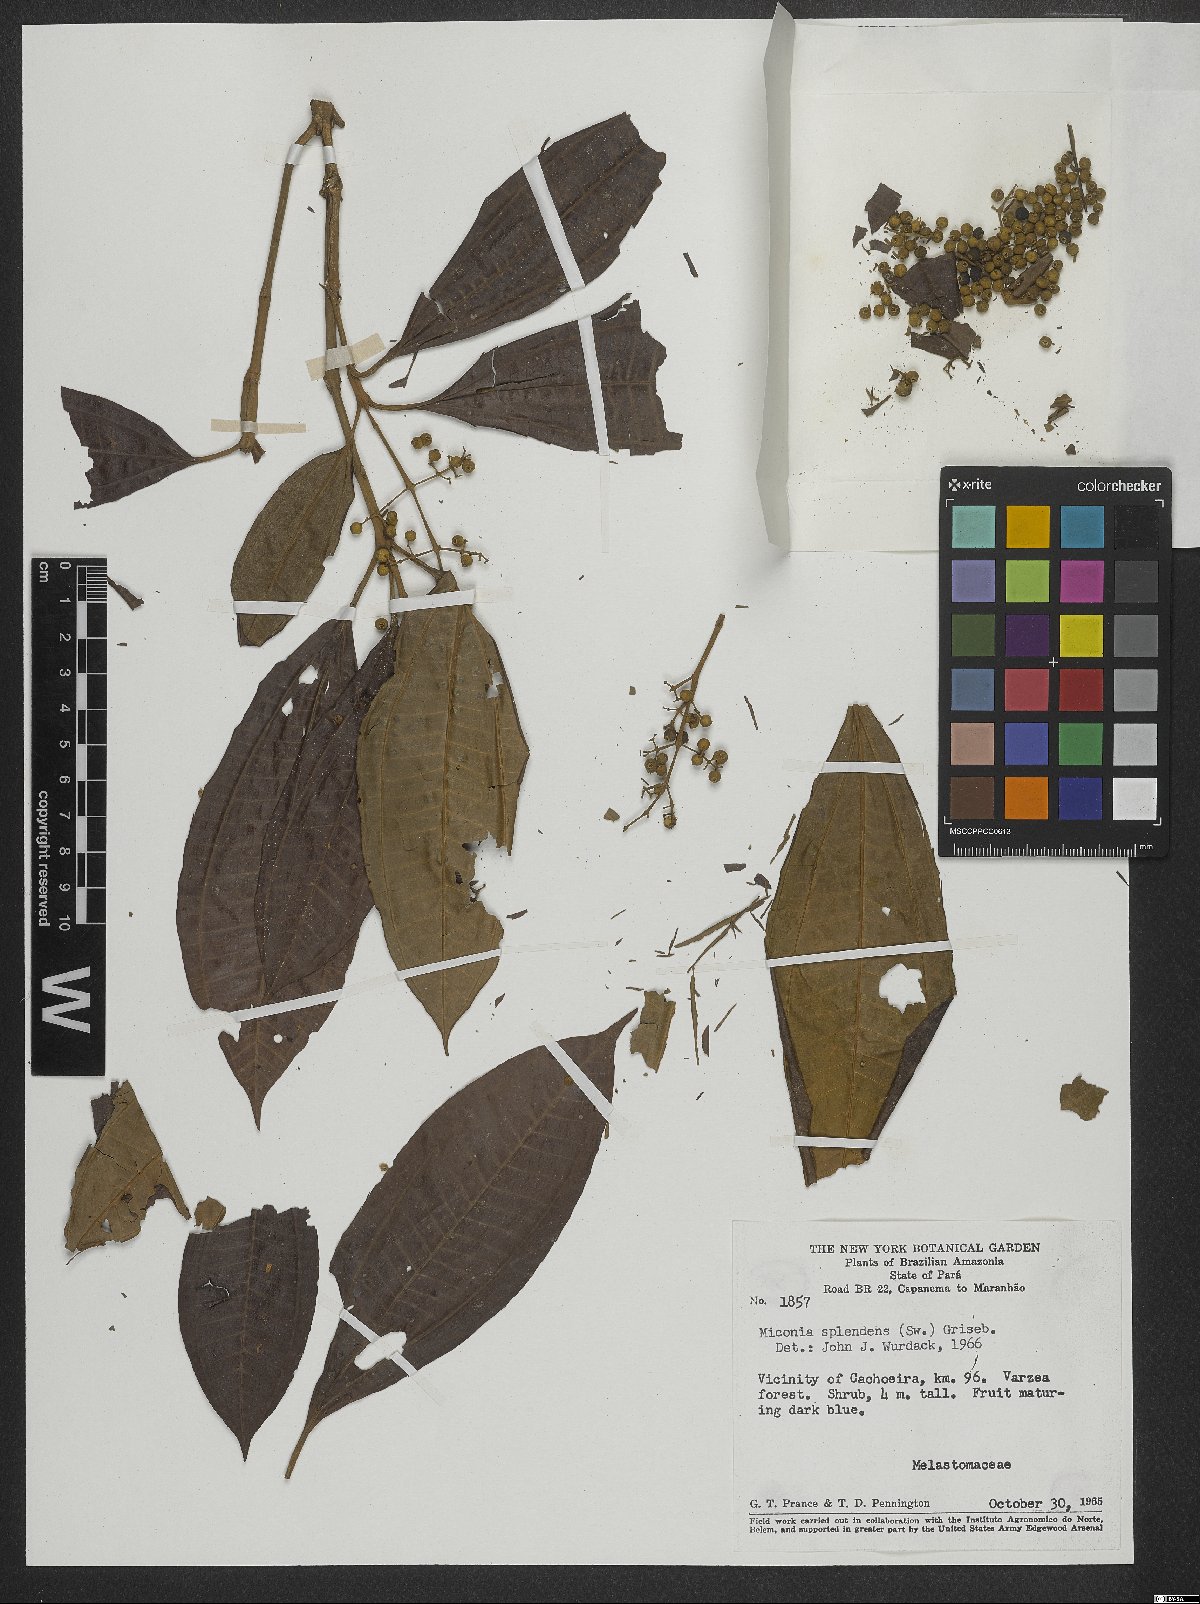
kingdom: Plantae
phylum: Tracheophyta
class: Magnoliopsida
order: Myrtales
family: Melastomataceae
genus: Miconia
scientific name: Miconia splendens
